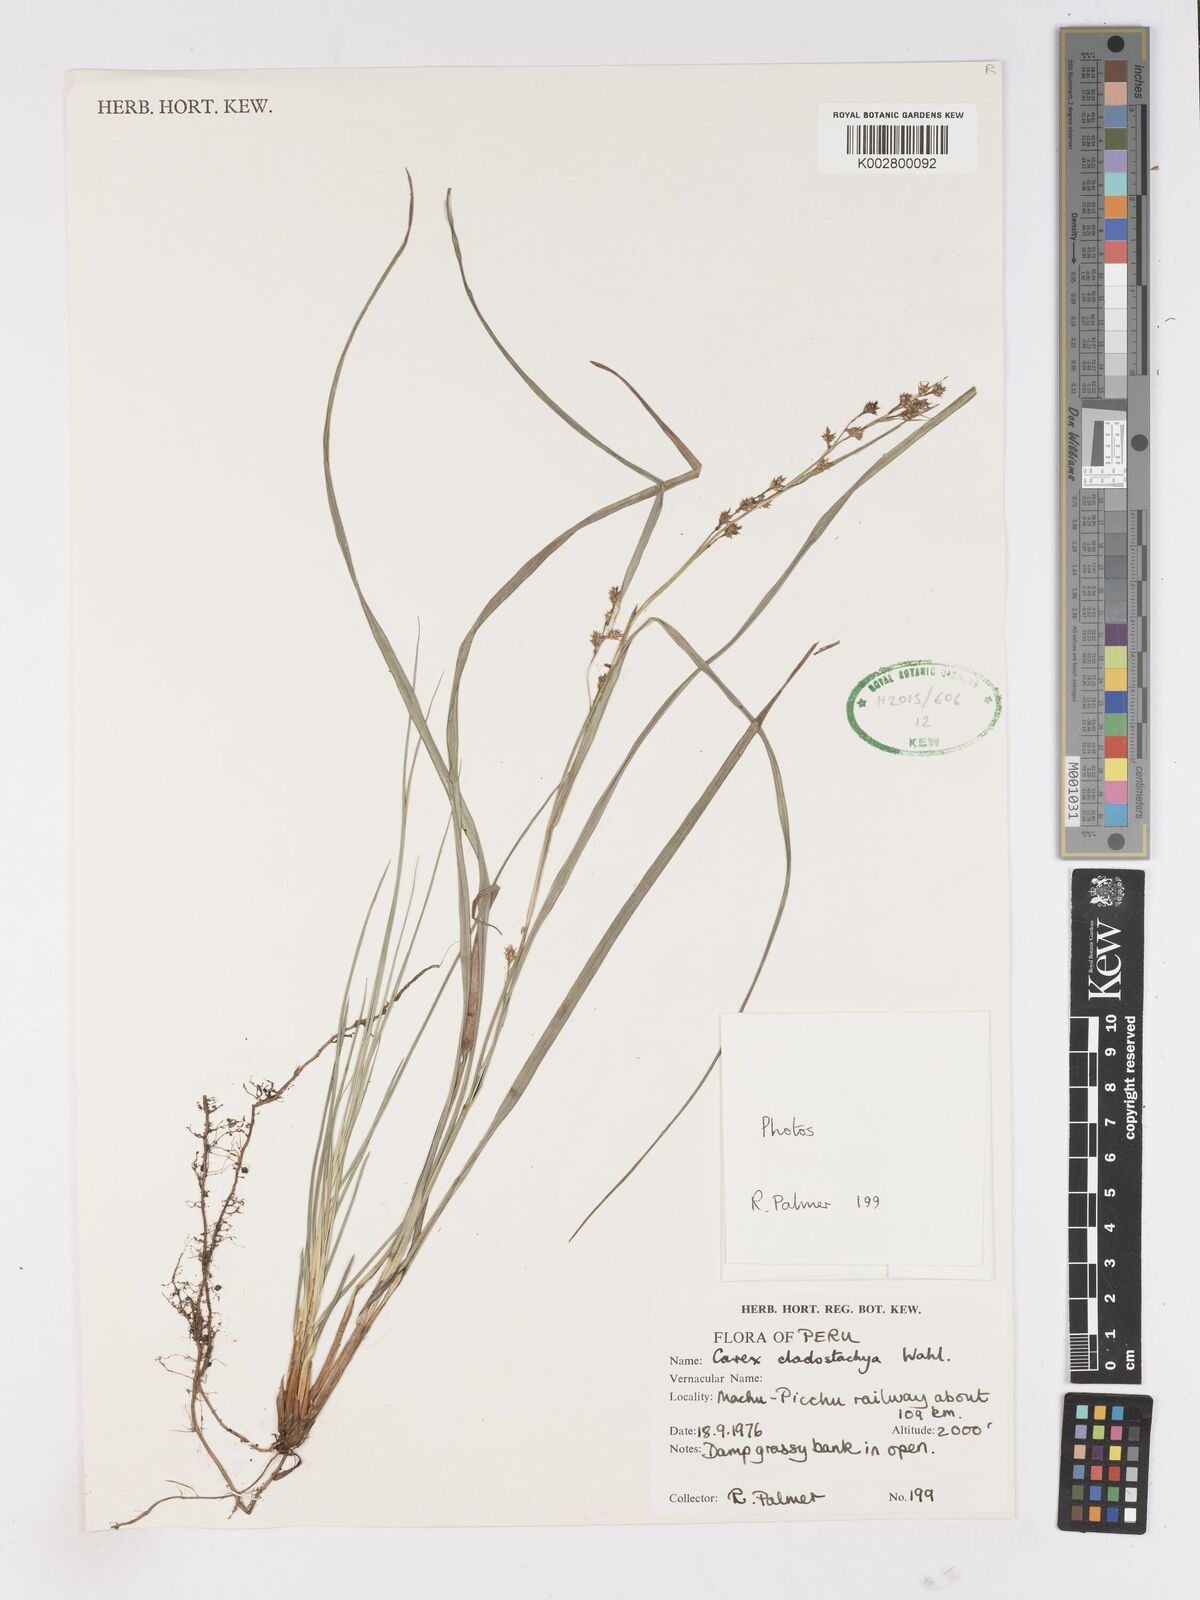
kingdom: Plantae
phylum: Tracheophyta
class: Liliopsida
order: Poales
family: Cyperaceae
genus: Carex
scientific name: Carex polystachya
